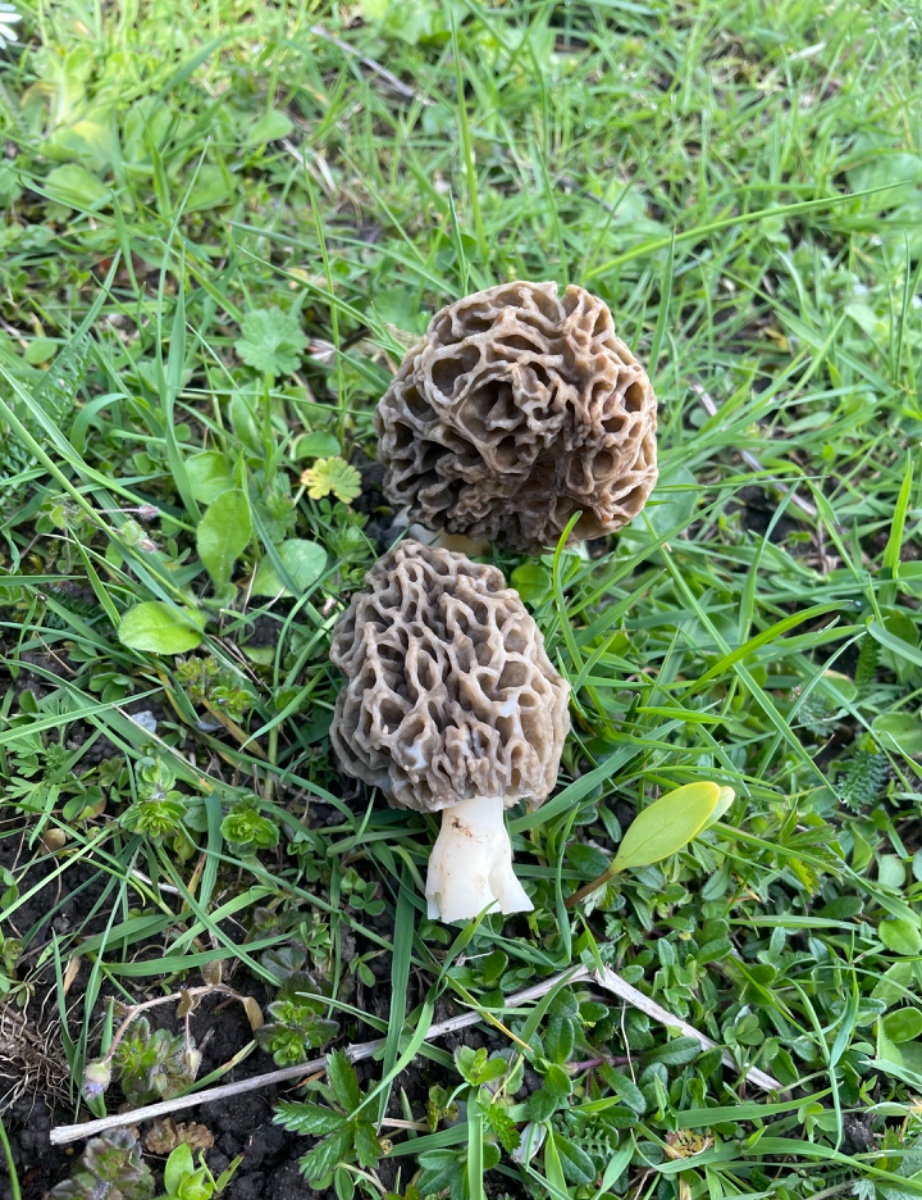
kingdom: Fungi
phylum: Ascomycota
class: Pezizomycetes
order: Pezizales
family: Morchellaceae
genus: Morchella
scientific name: Morchella esculenta
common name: almindelig morkel
